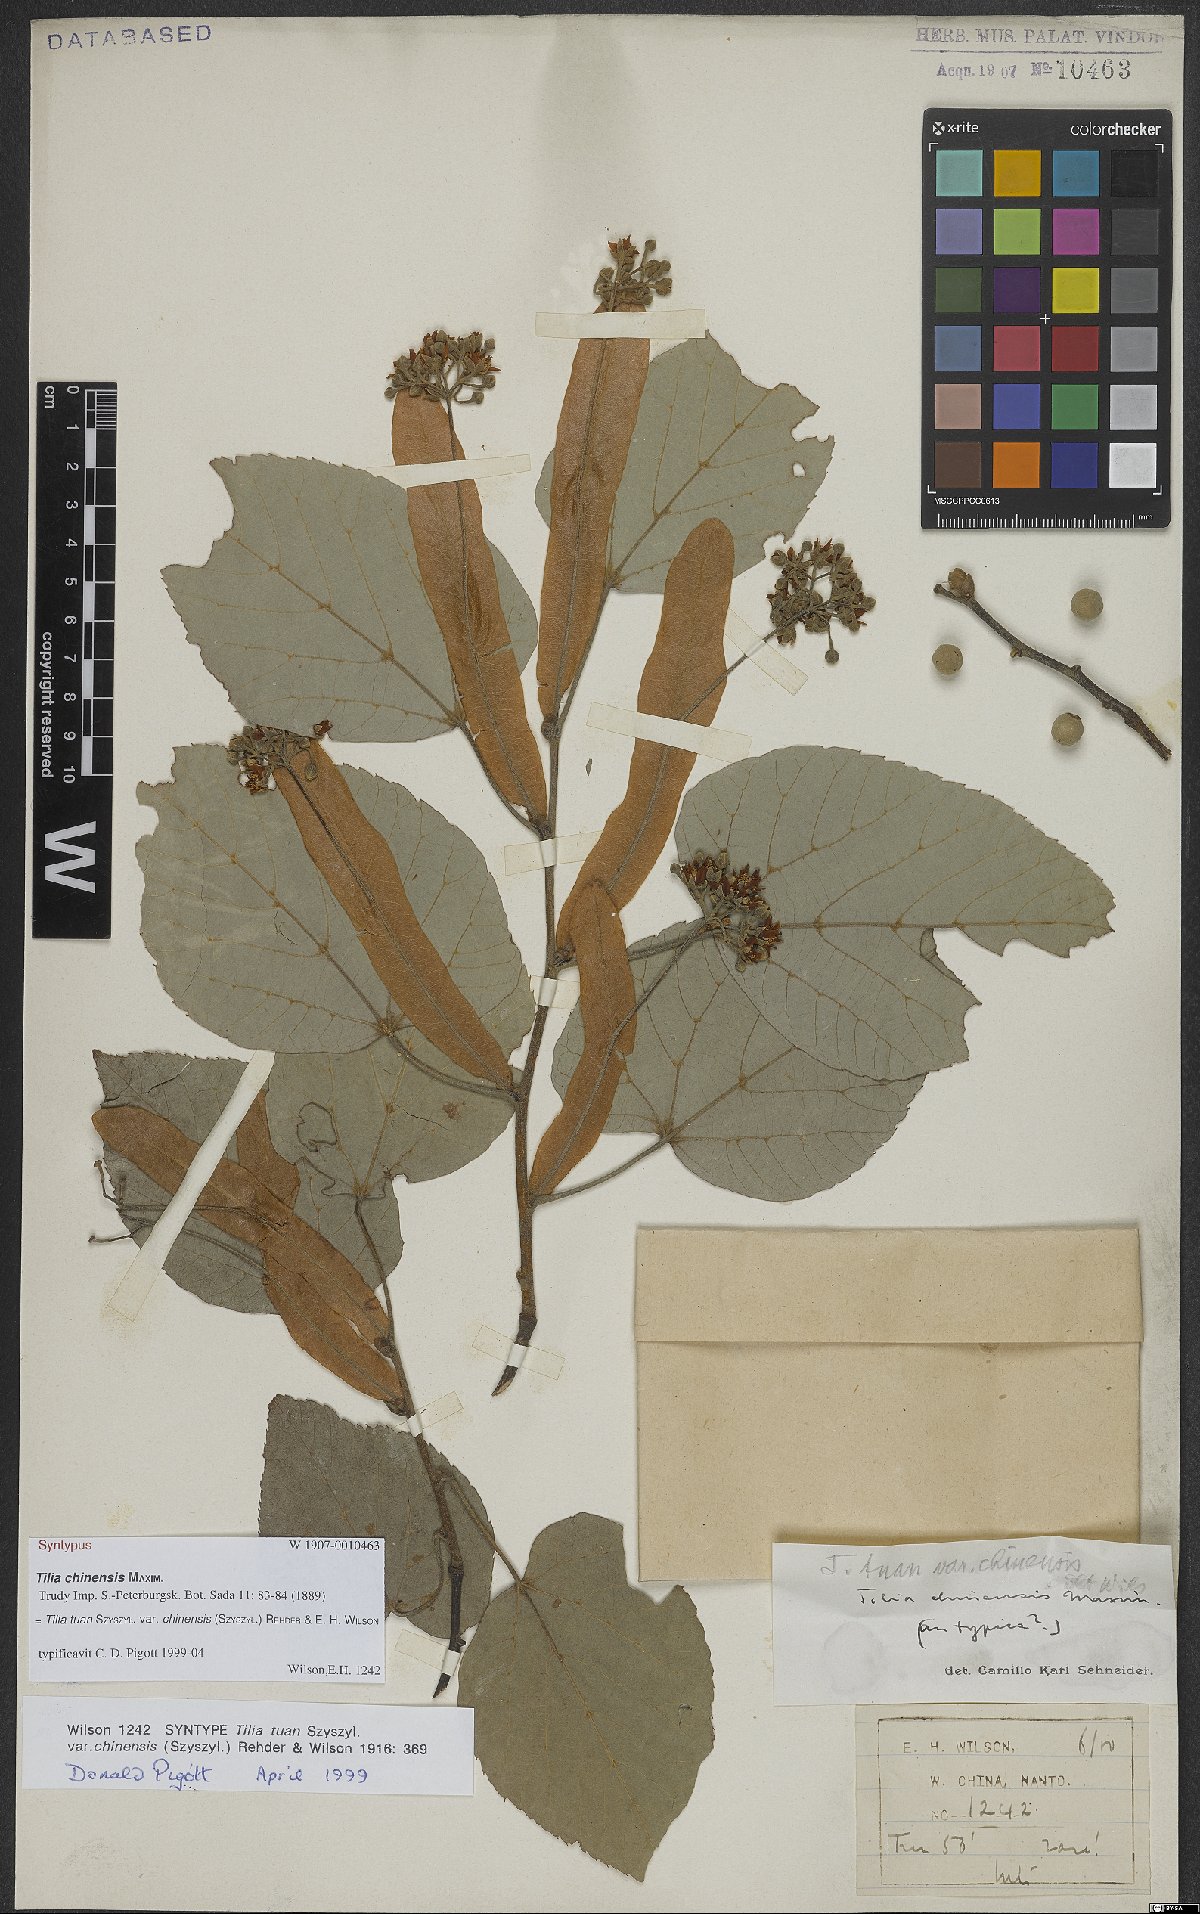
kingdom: Plantae
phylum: Tracheophyta
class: Magnoliopsida
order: Malvales
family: Malvaceae
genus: Tilia
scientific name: Tilia tuan
